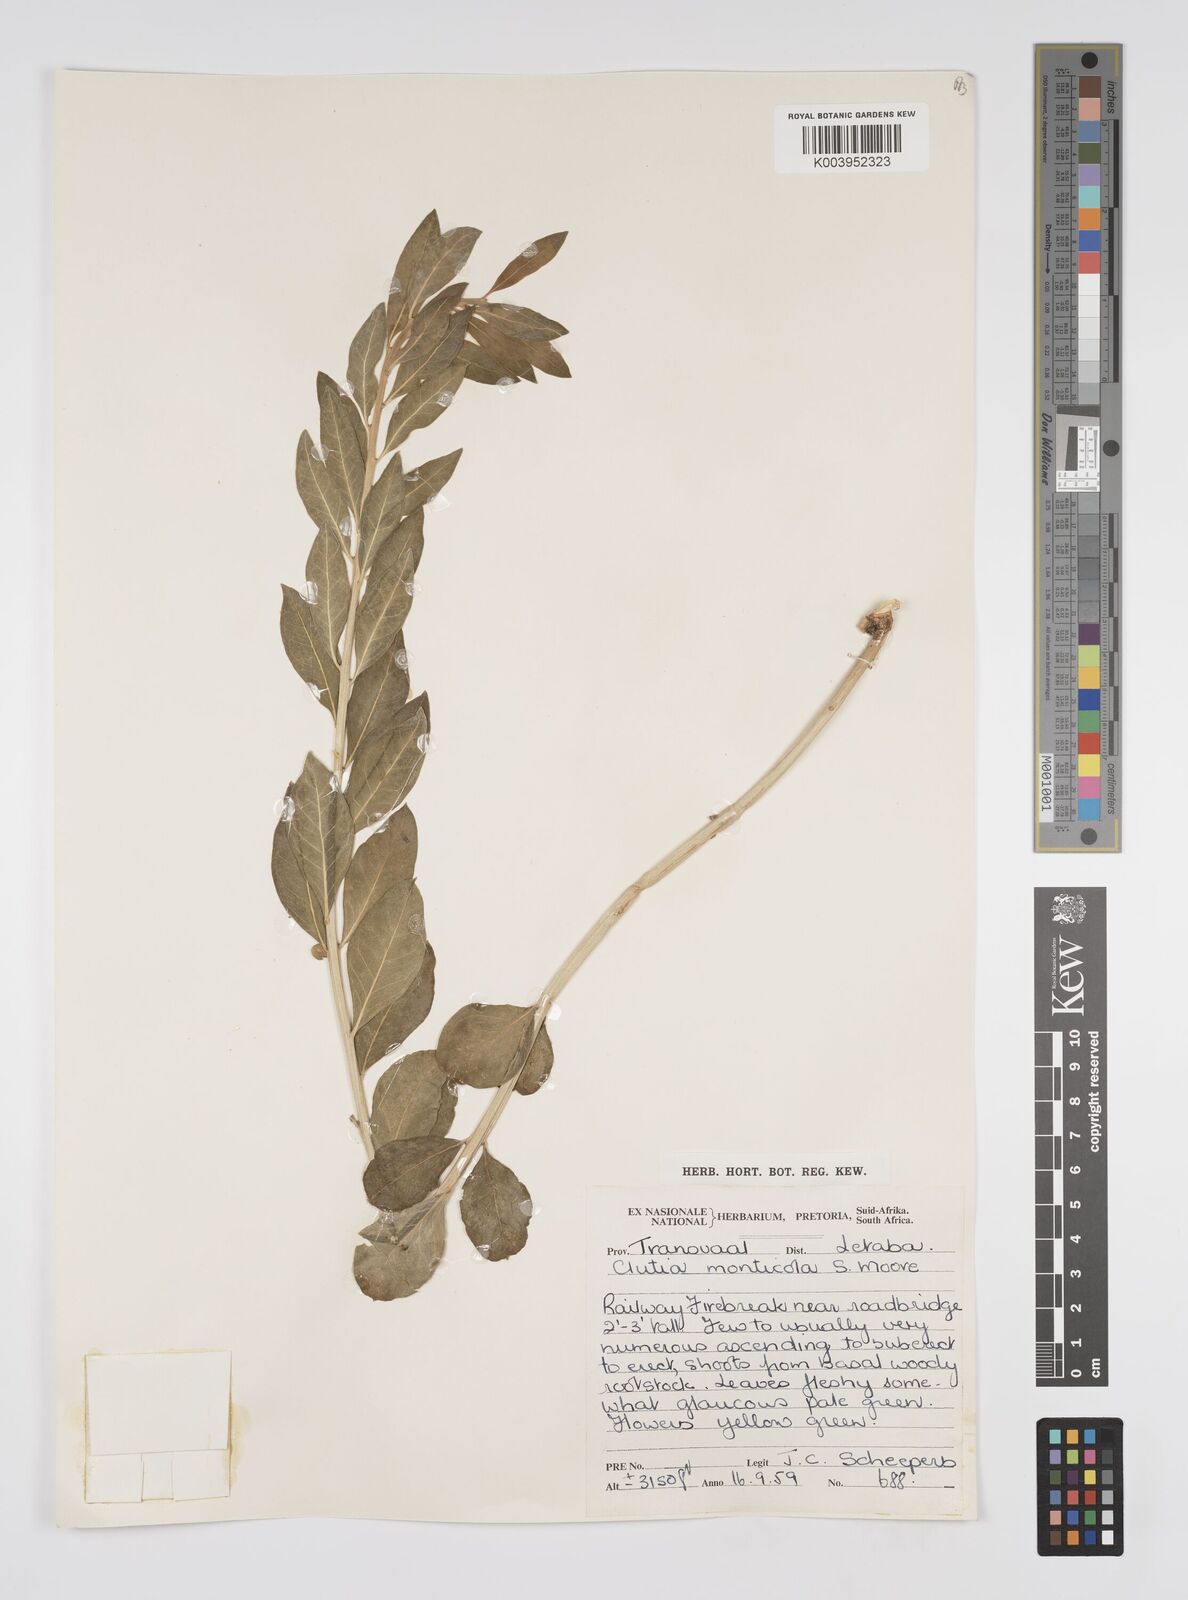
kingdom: Plantae
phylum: Tracheophyta
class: Magnoliopsida
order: Malpighiales
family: Peraceae
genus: Clutia
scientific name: Clutia
